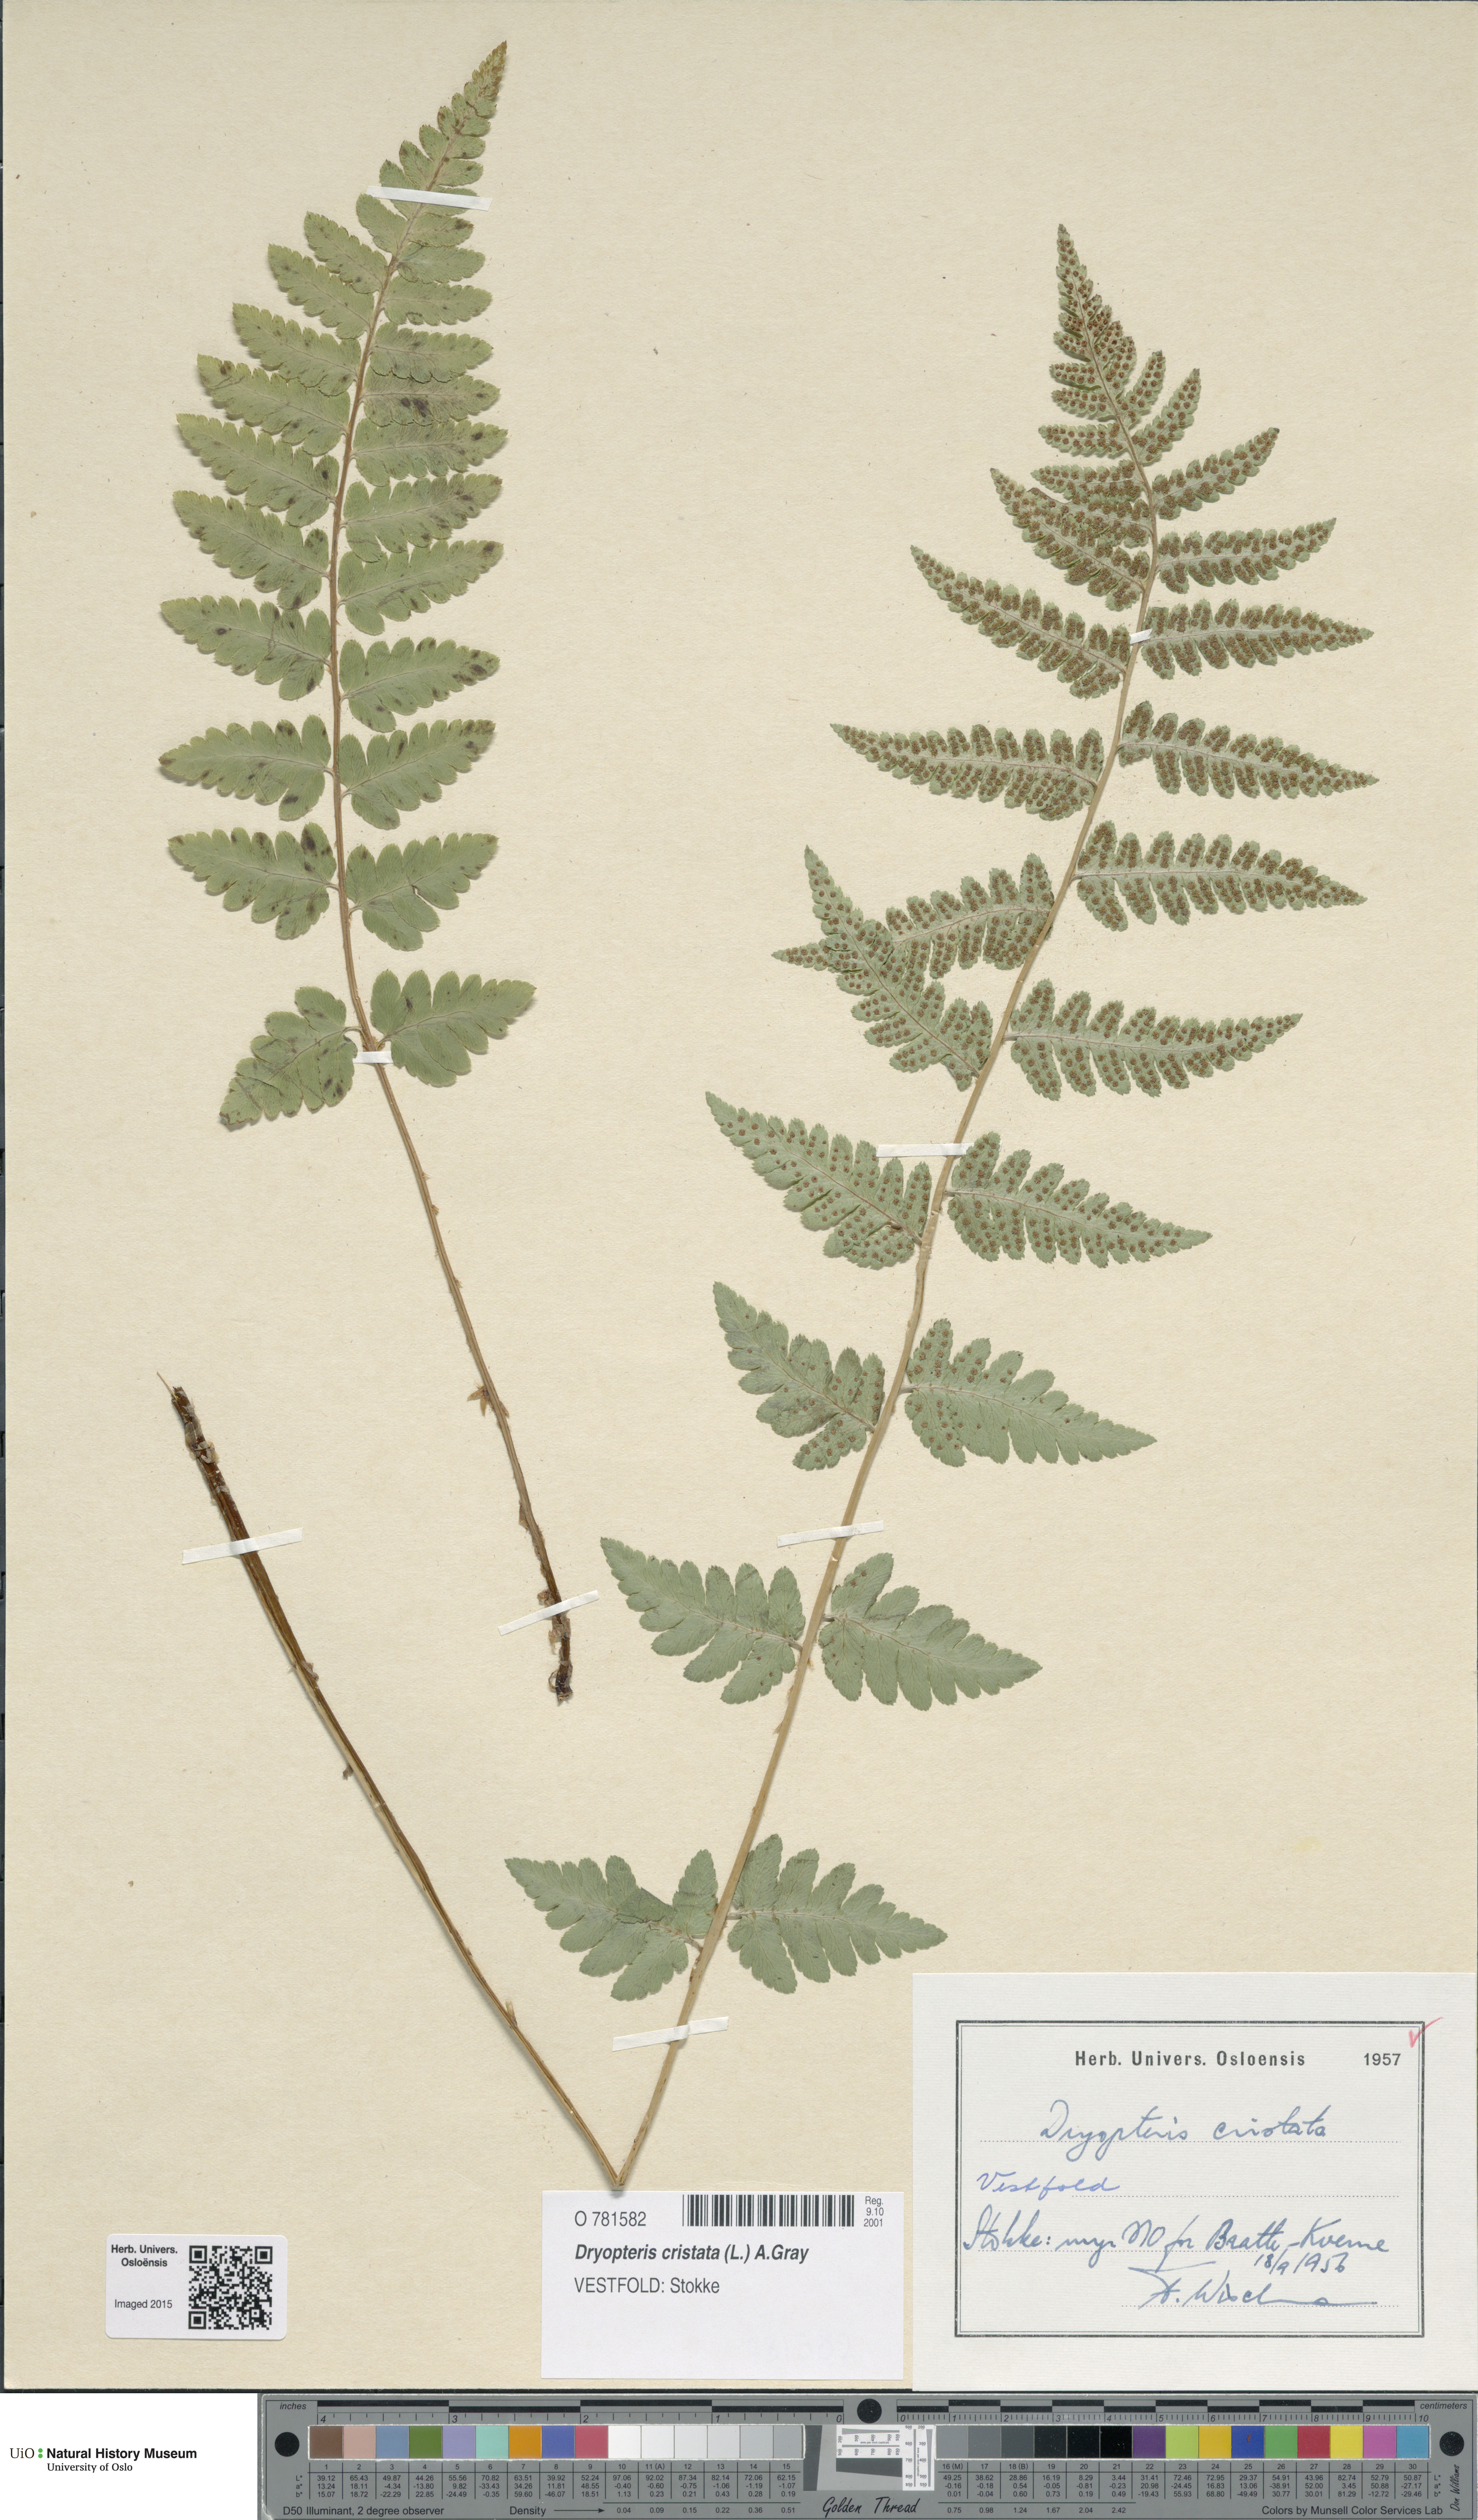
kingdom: Plantae
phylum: Tracheophyta
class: Polypodiopsida
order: Polypodiales
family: Dryopteridaceae
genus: Dryopteris
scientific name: Dryopteris cristata
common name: Crested wood fern
